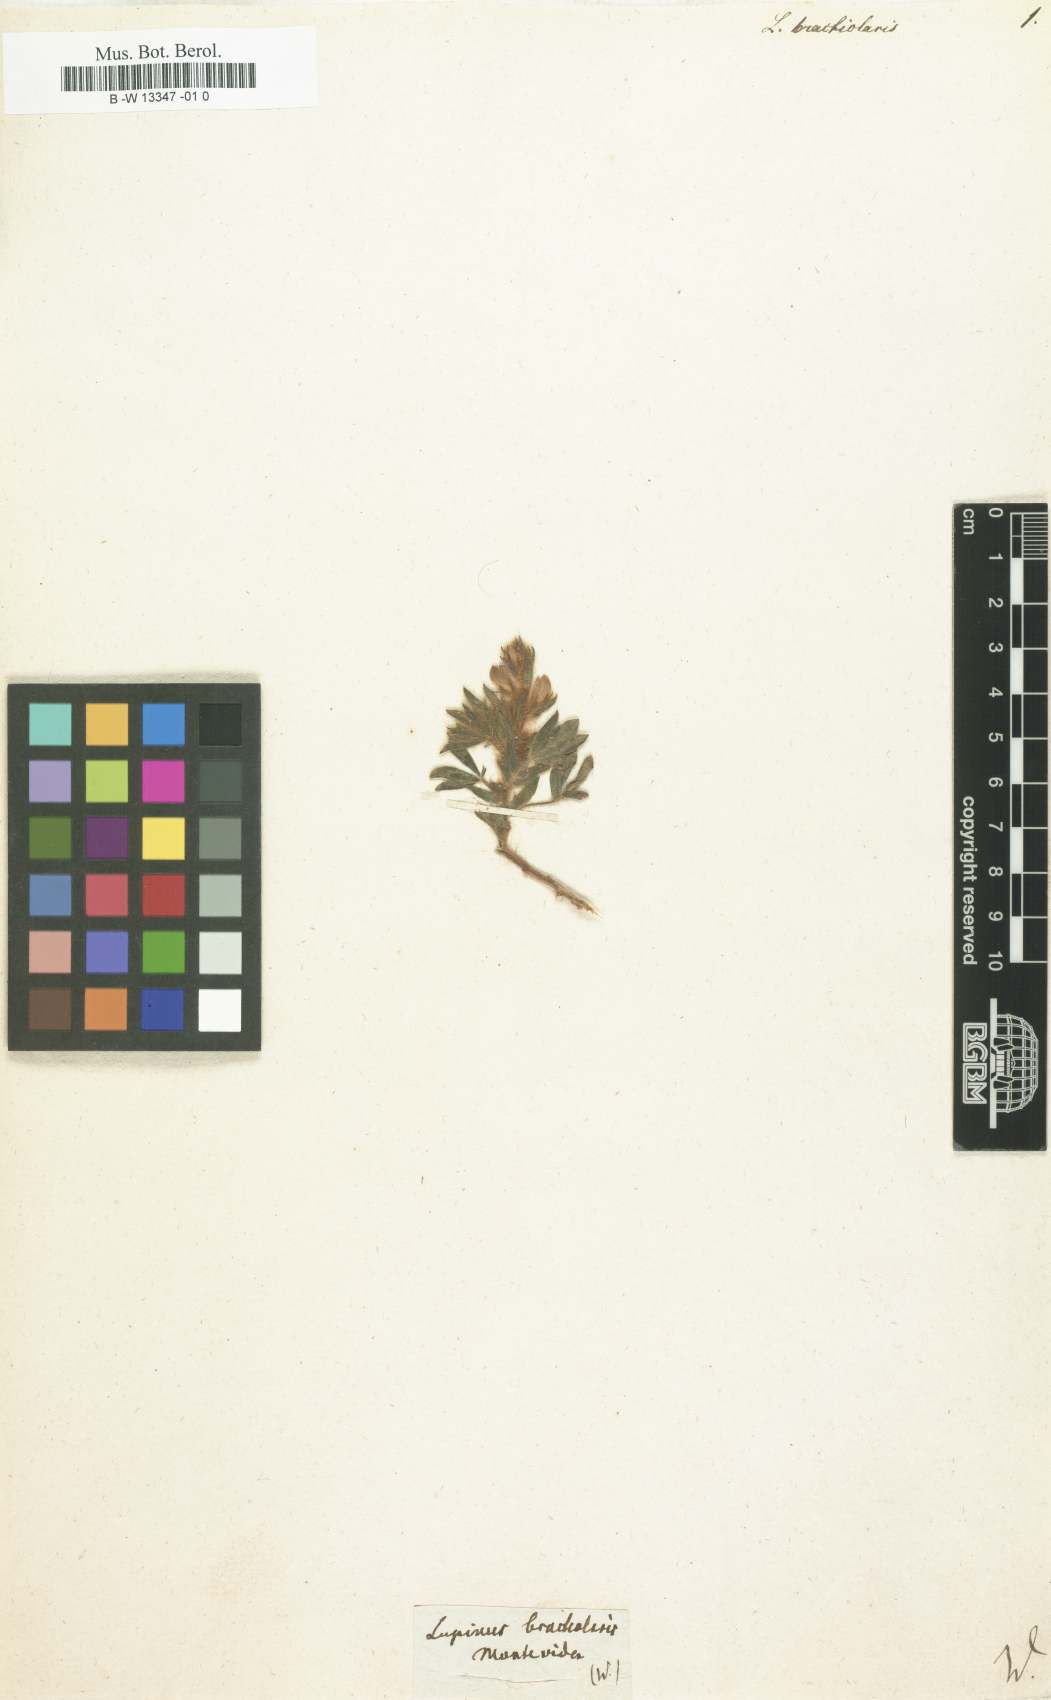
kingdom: Plantae
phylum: Tracheophyta
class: Magnoliopsida
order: Fabales
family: Fabaceae
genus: Lupinus
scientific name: Lupinus bracteolaris
